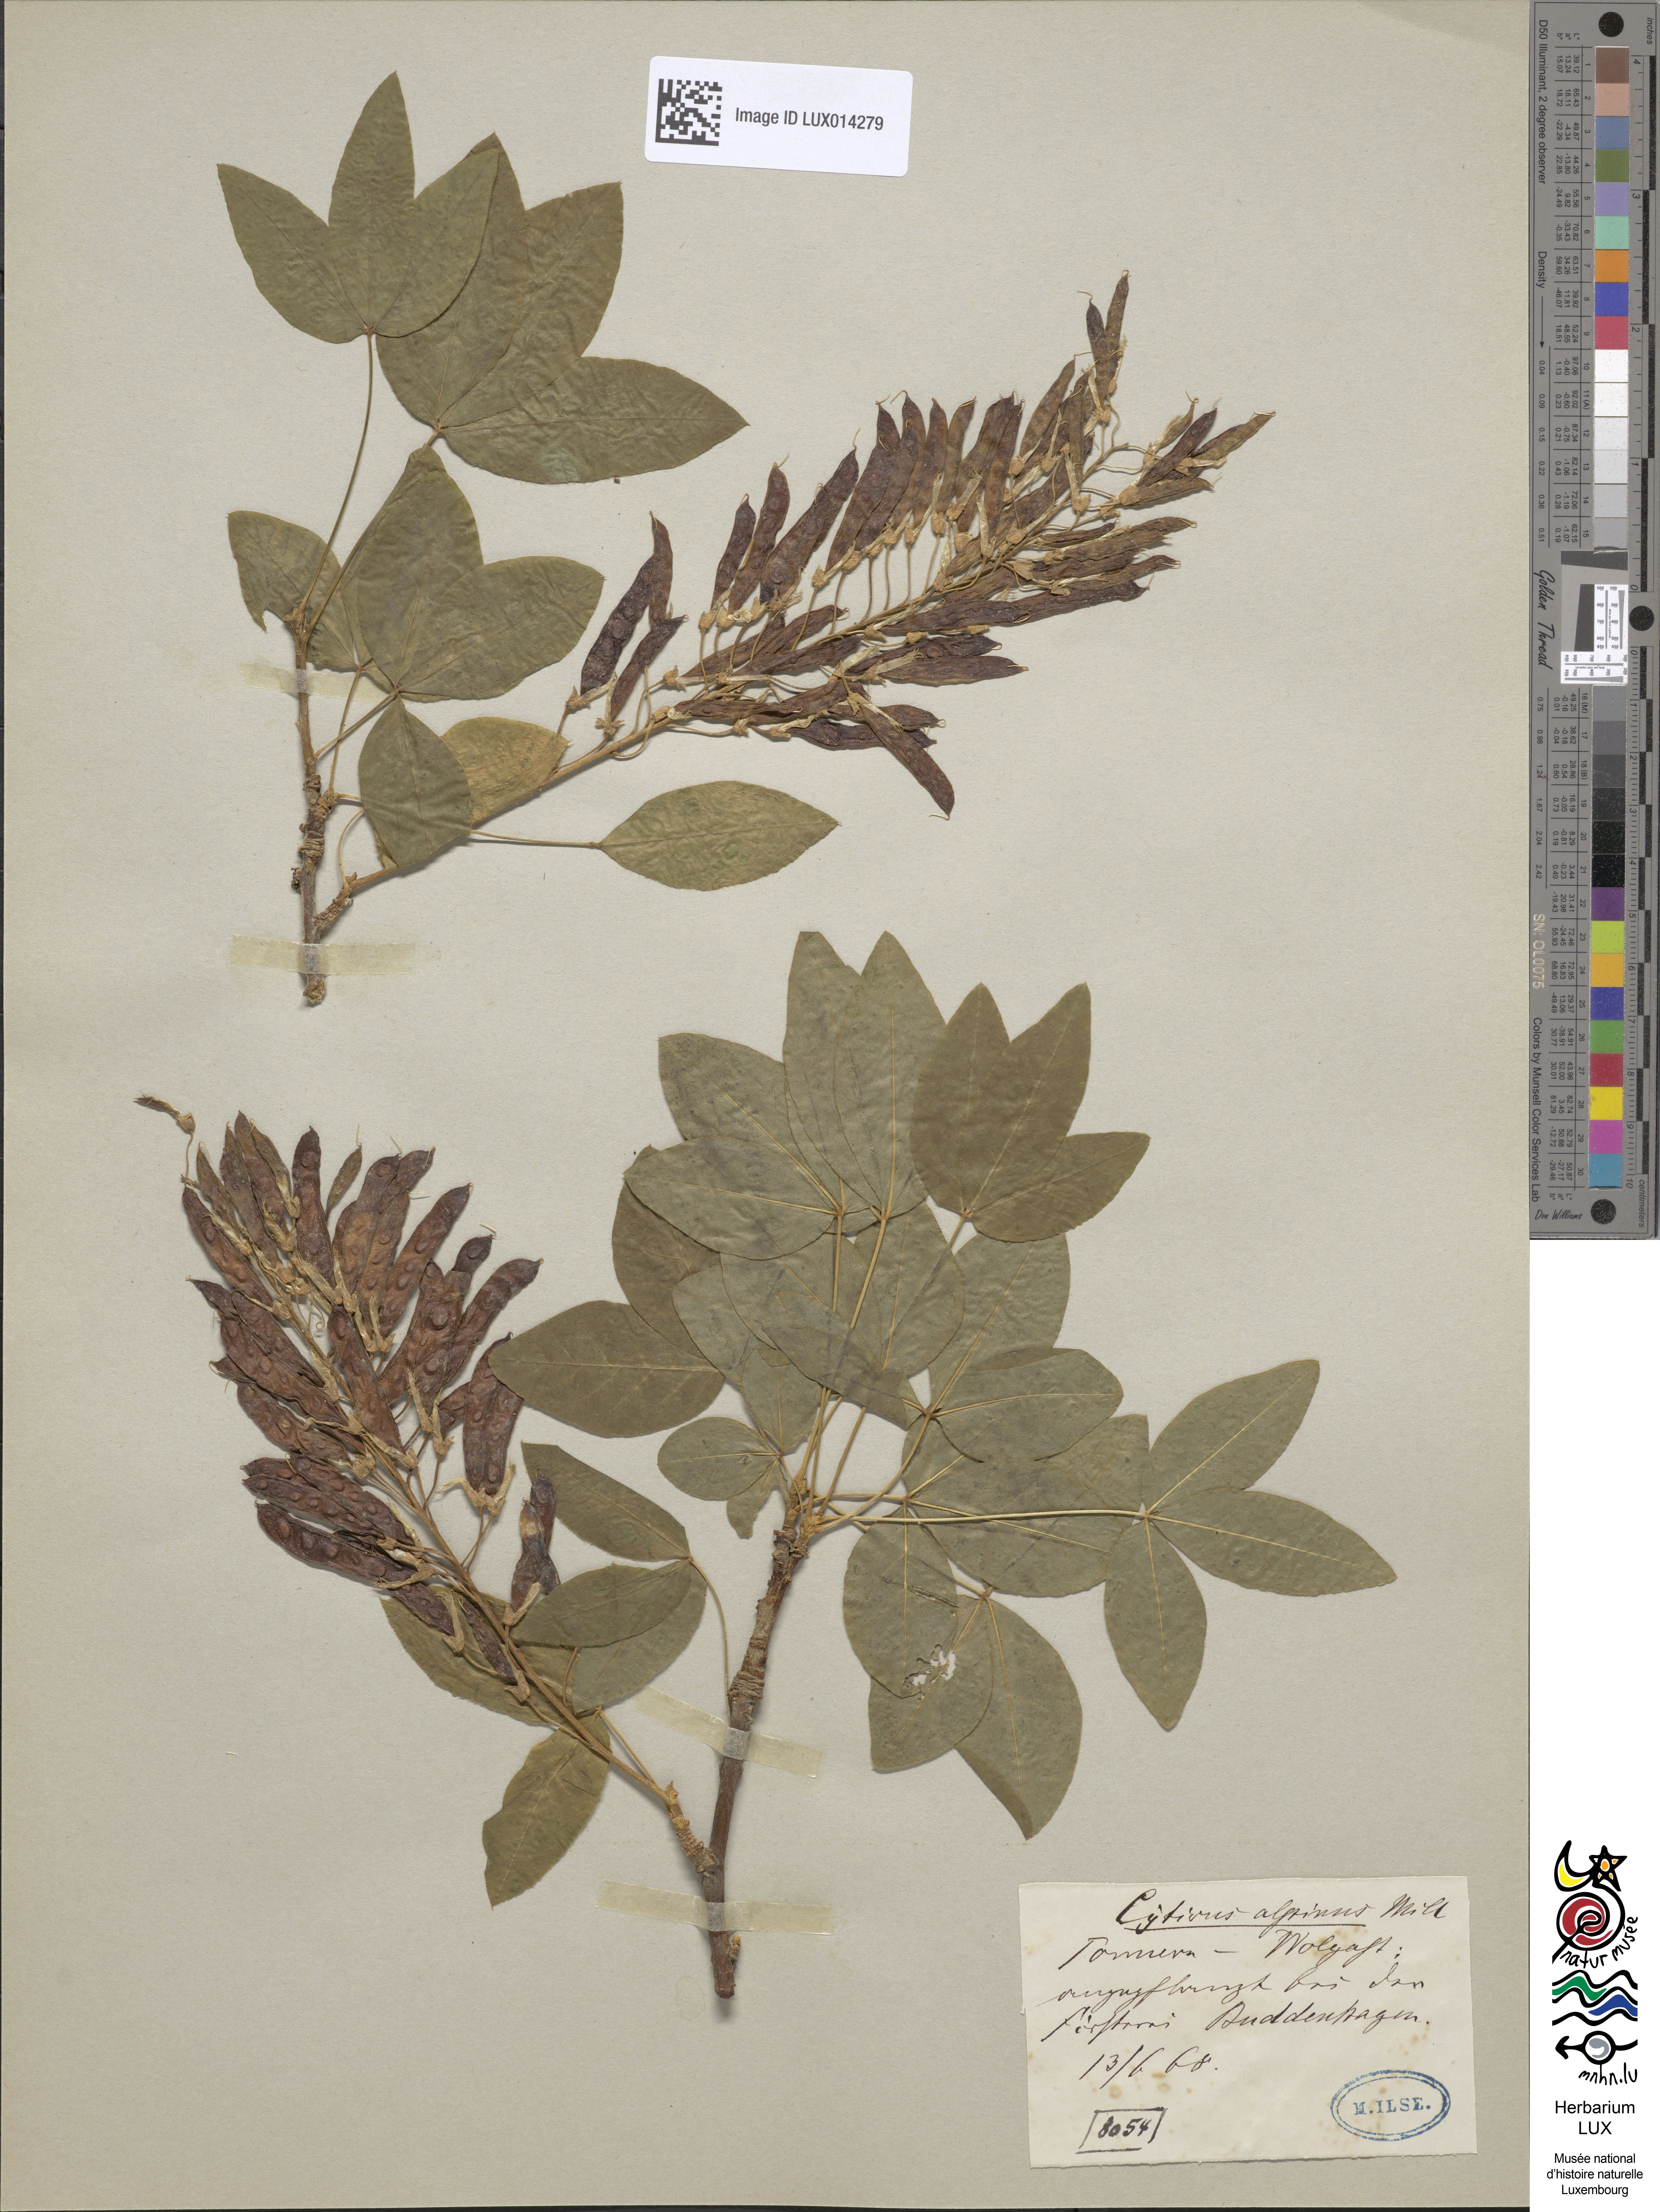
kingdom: Plantae
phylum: Tracheophyta
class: Magnoliopsida
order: Fabales
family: Fabaceae
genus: Laburnum
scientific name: Laburnum alpinum
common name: Scottish laburnum
